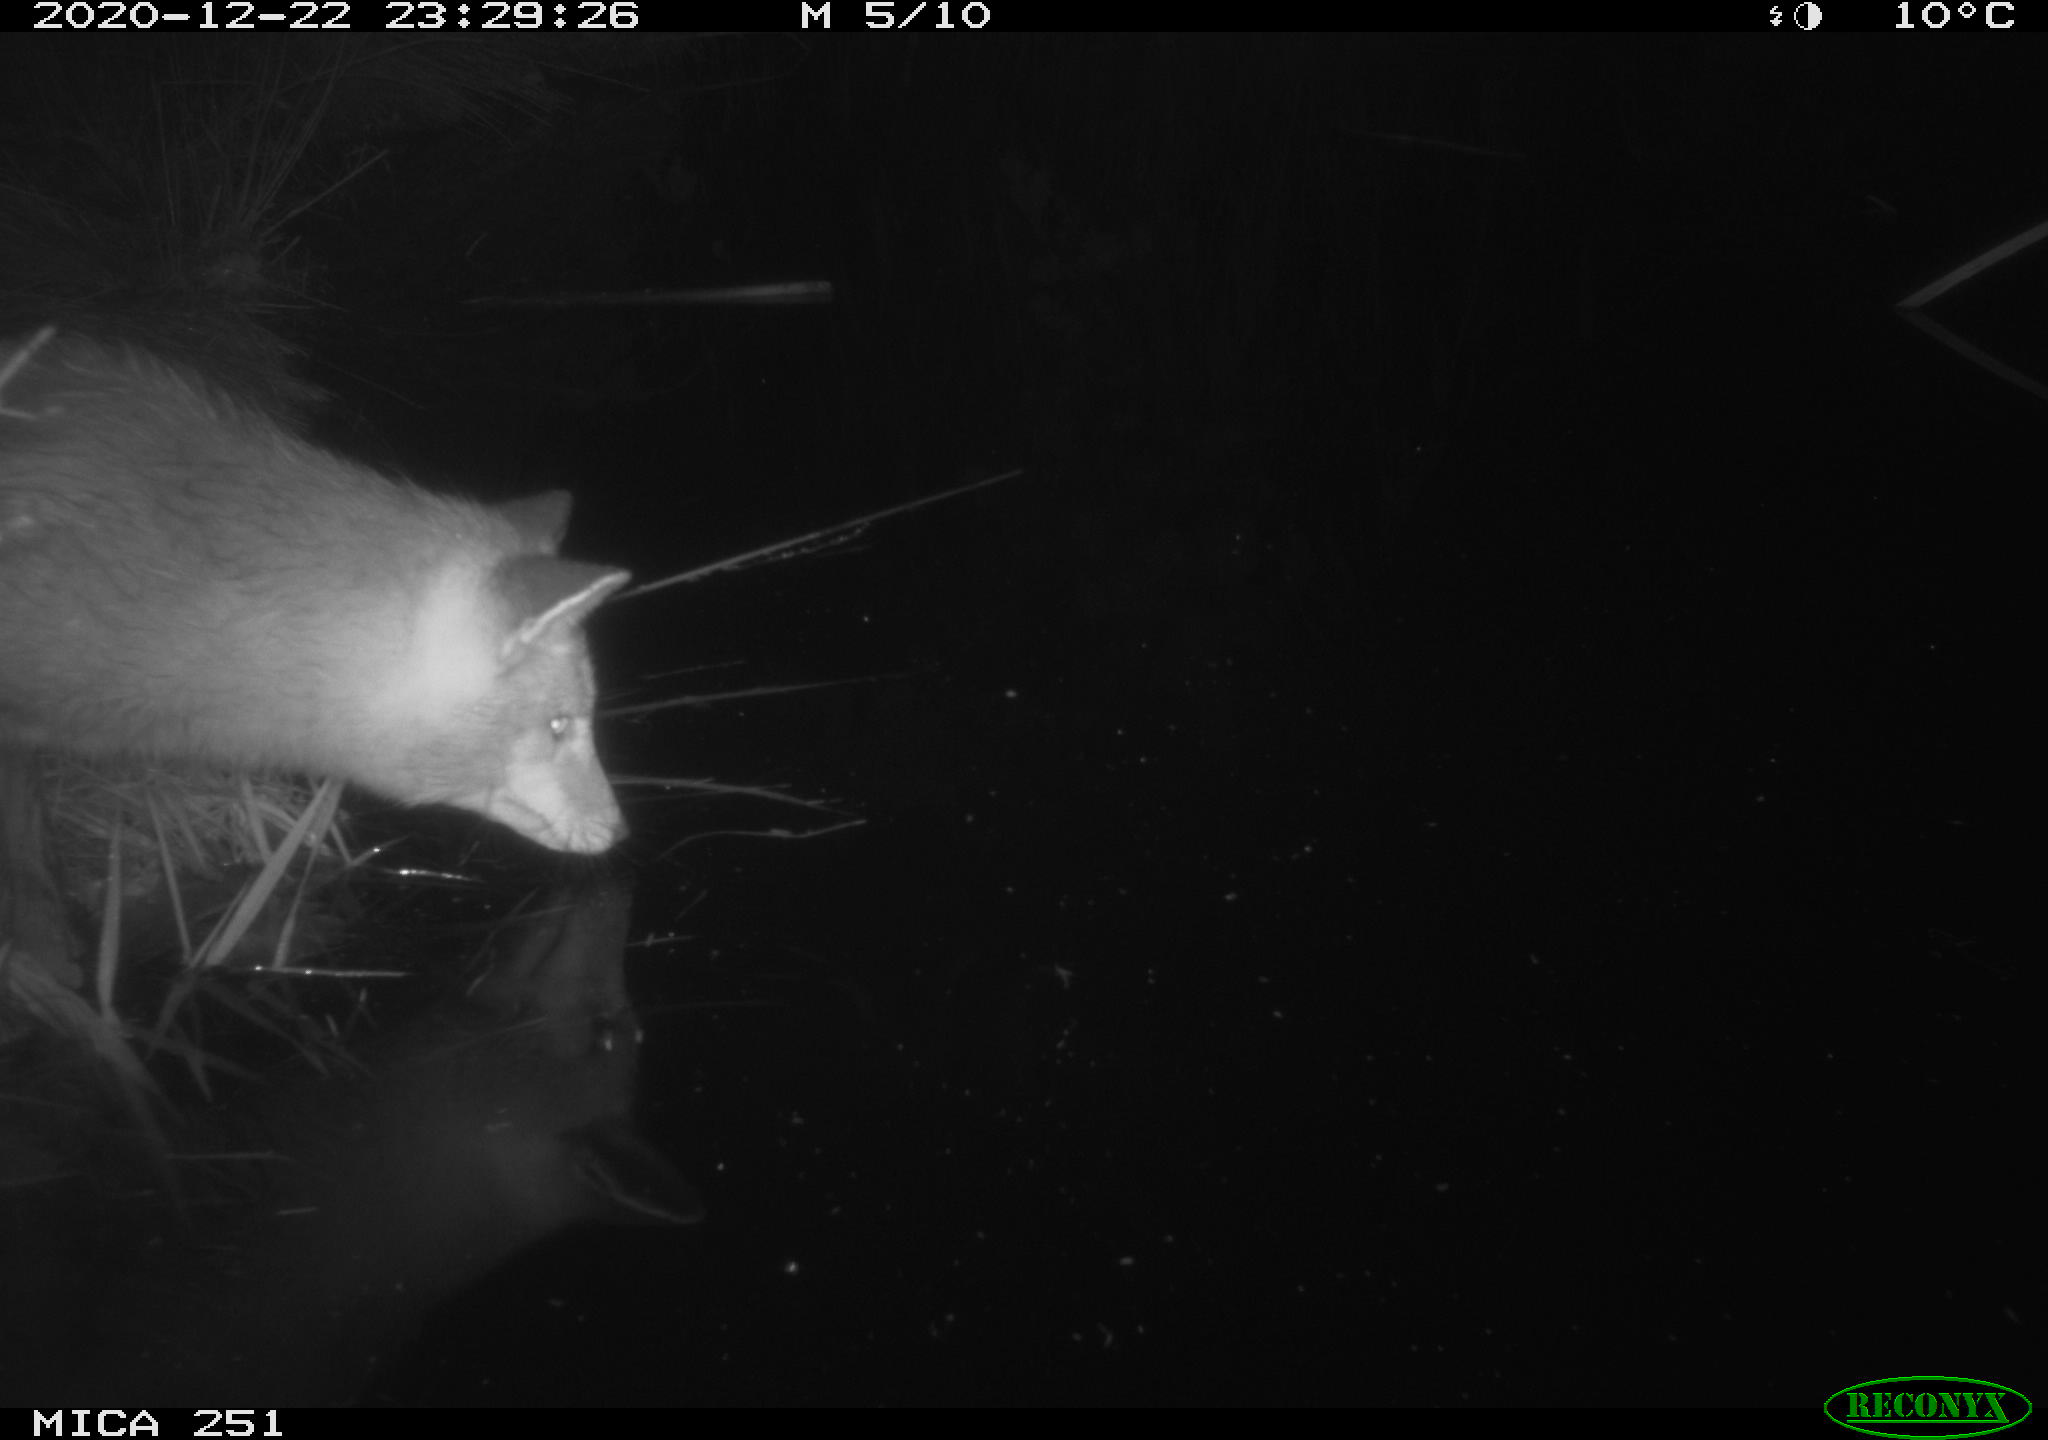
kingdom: Animalia
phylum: Chordata
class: Mammalia
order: Carnivora
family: Canidae
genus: Vulpes
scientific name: Vulpes vulpes
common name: Red fox
